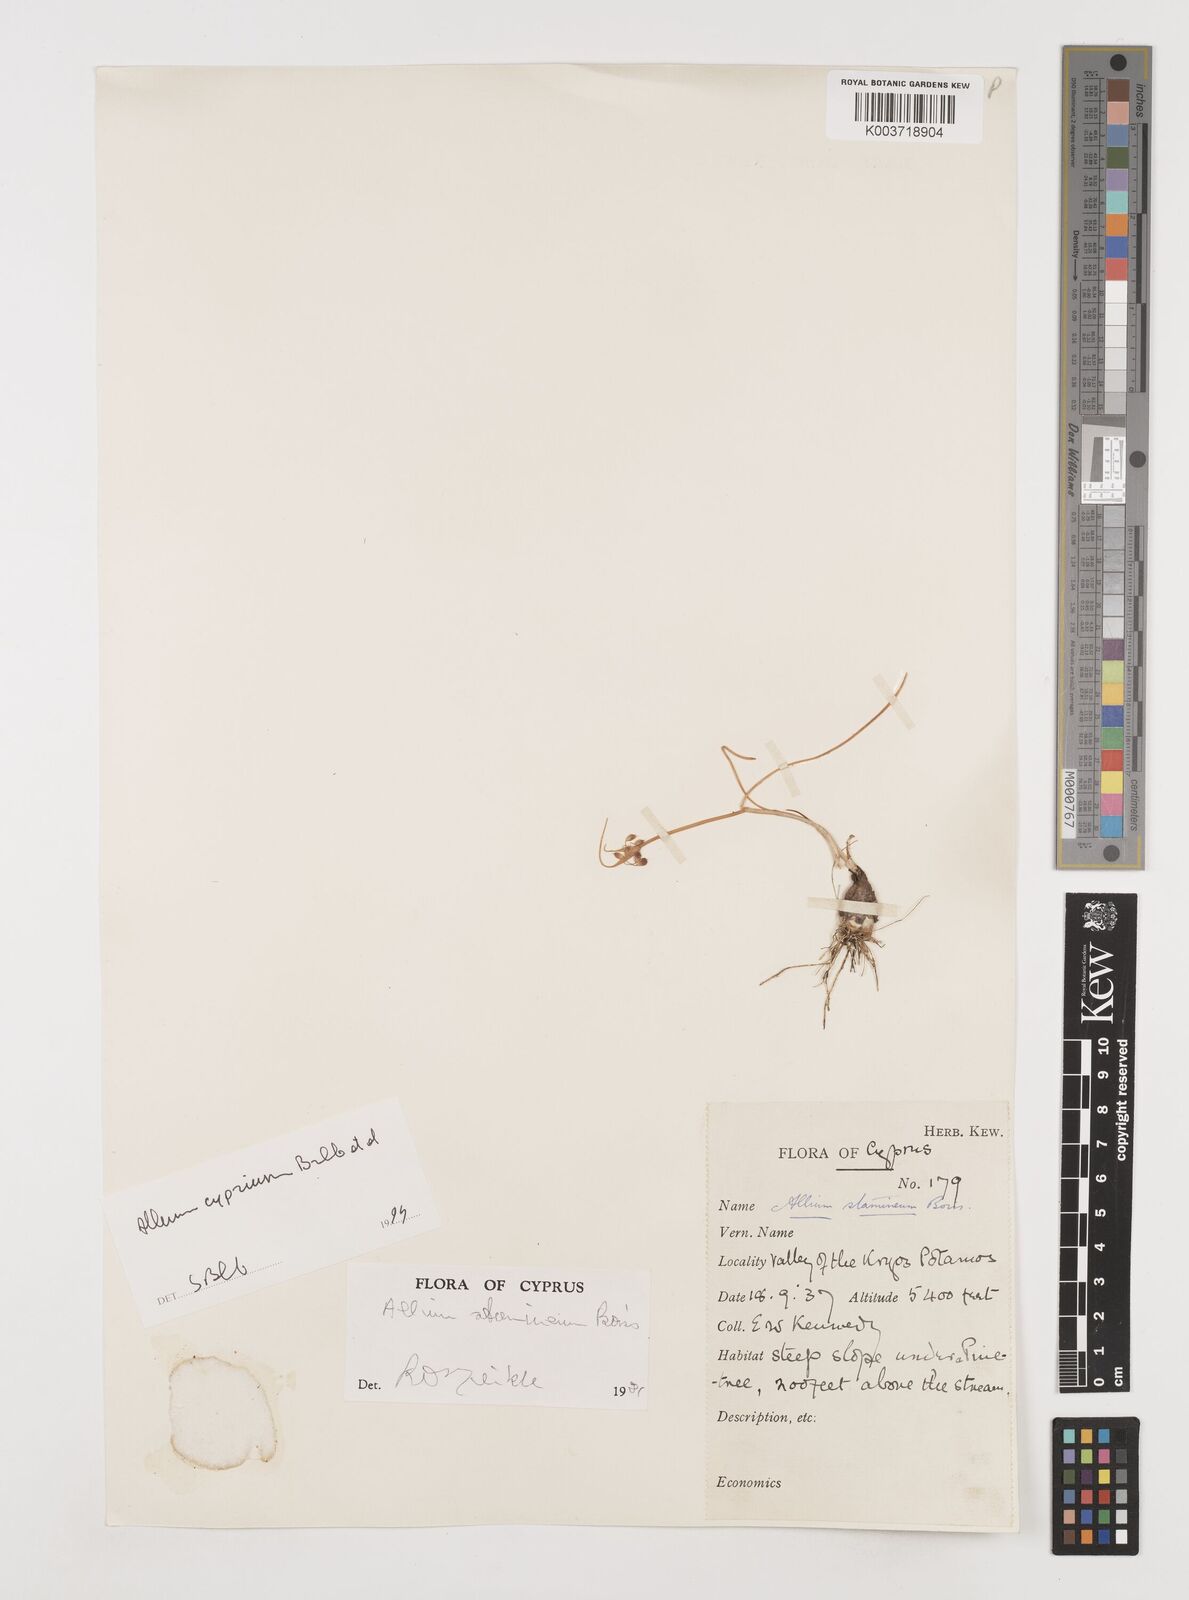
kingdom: Plantae
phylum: Tracheophyta
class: Liliopsida
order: Asparagales
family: Amaryllidaceae
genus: Allium
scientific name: Allium stamineum
